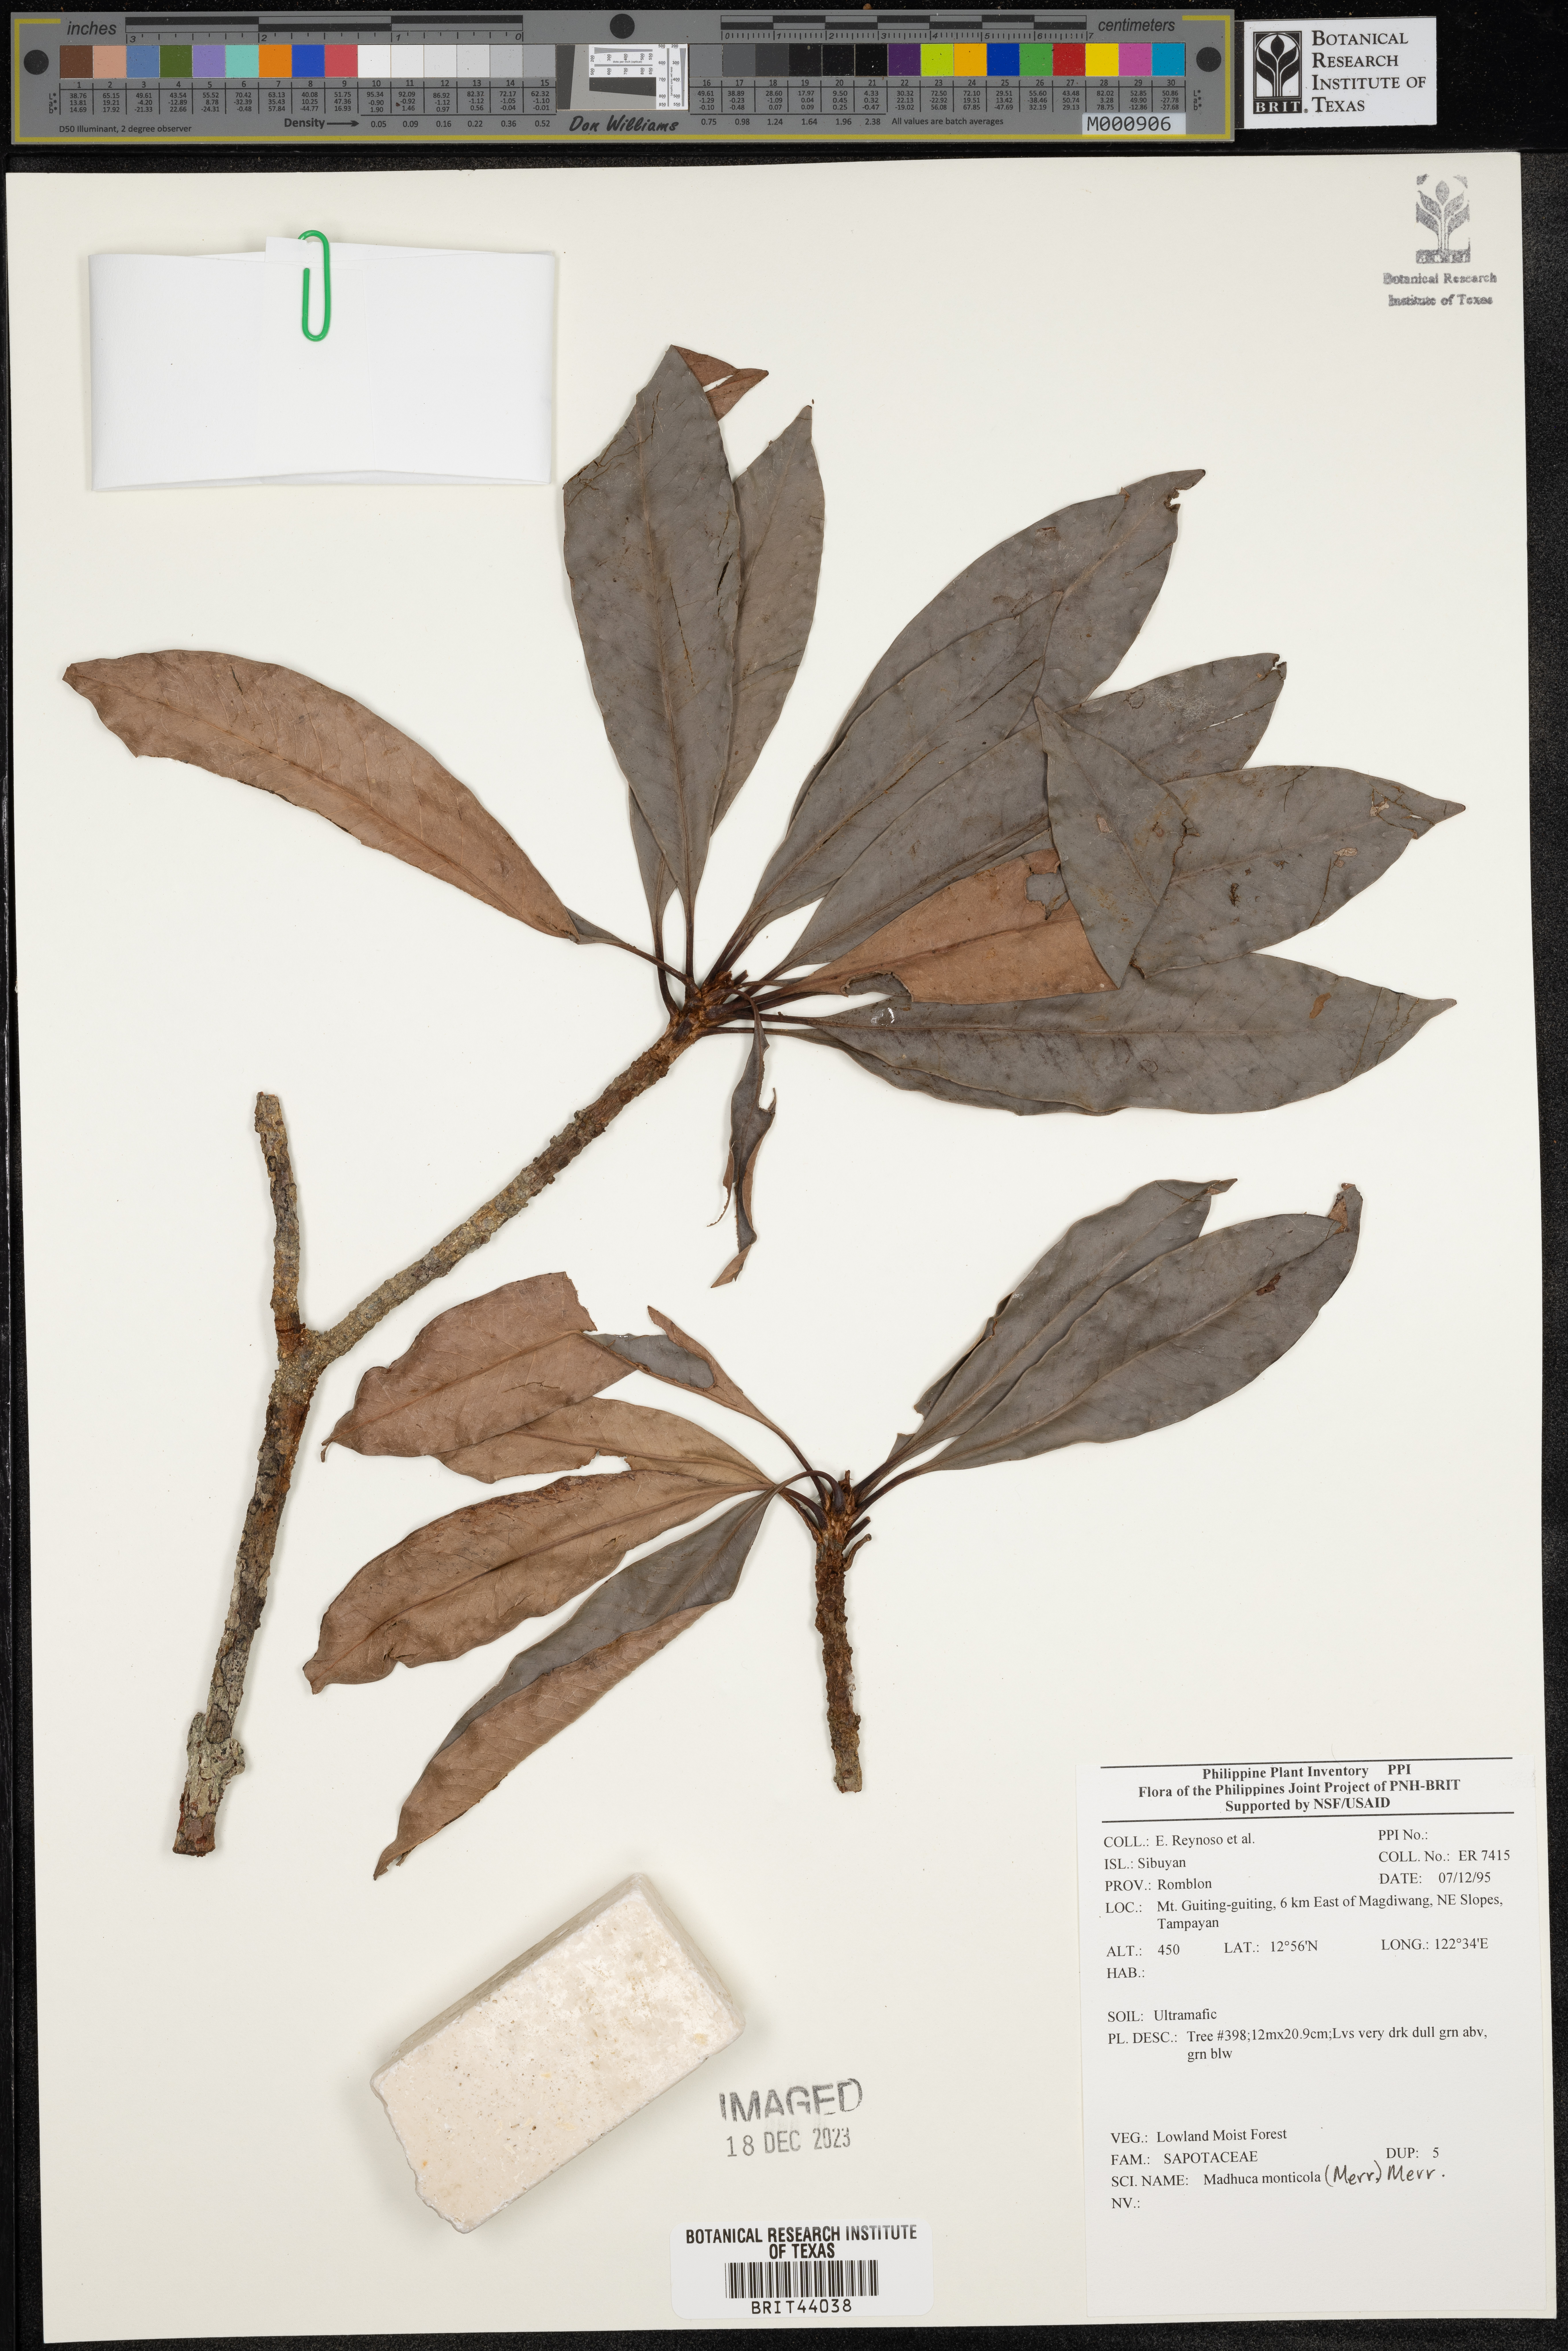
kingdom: Plantae
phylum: Tracheophyta
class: Magnoliopsida
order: Ericales
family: Sapotaceae
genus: Madhuca
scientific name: Madhuca
